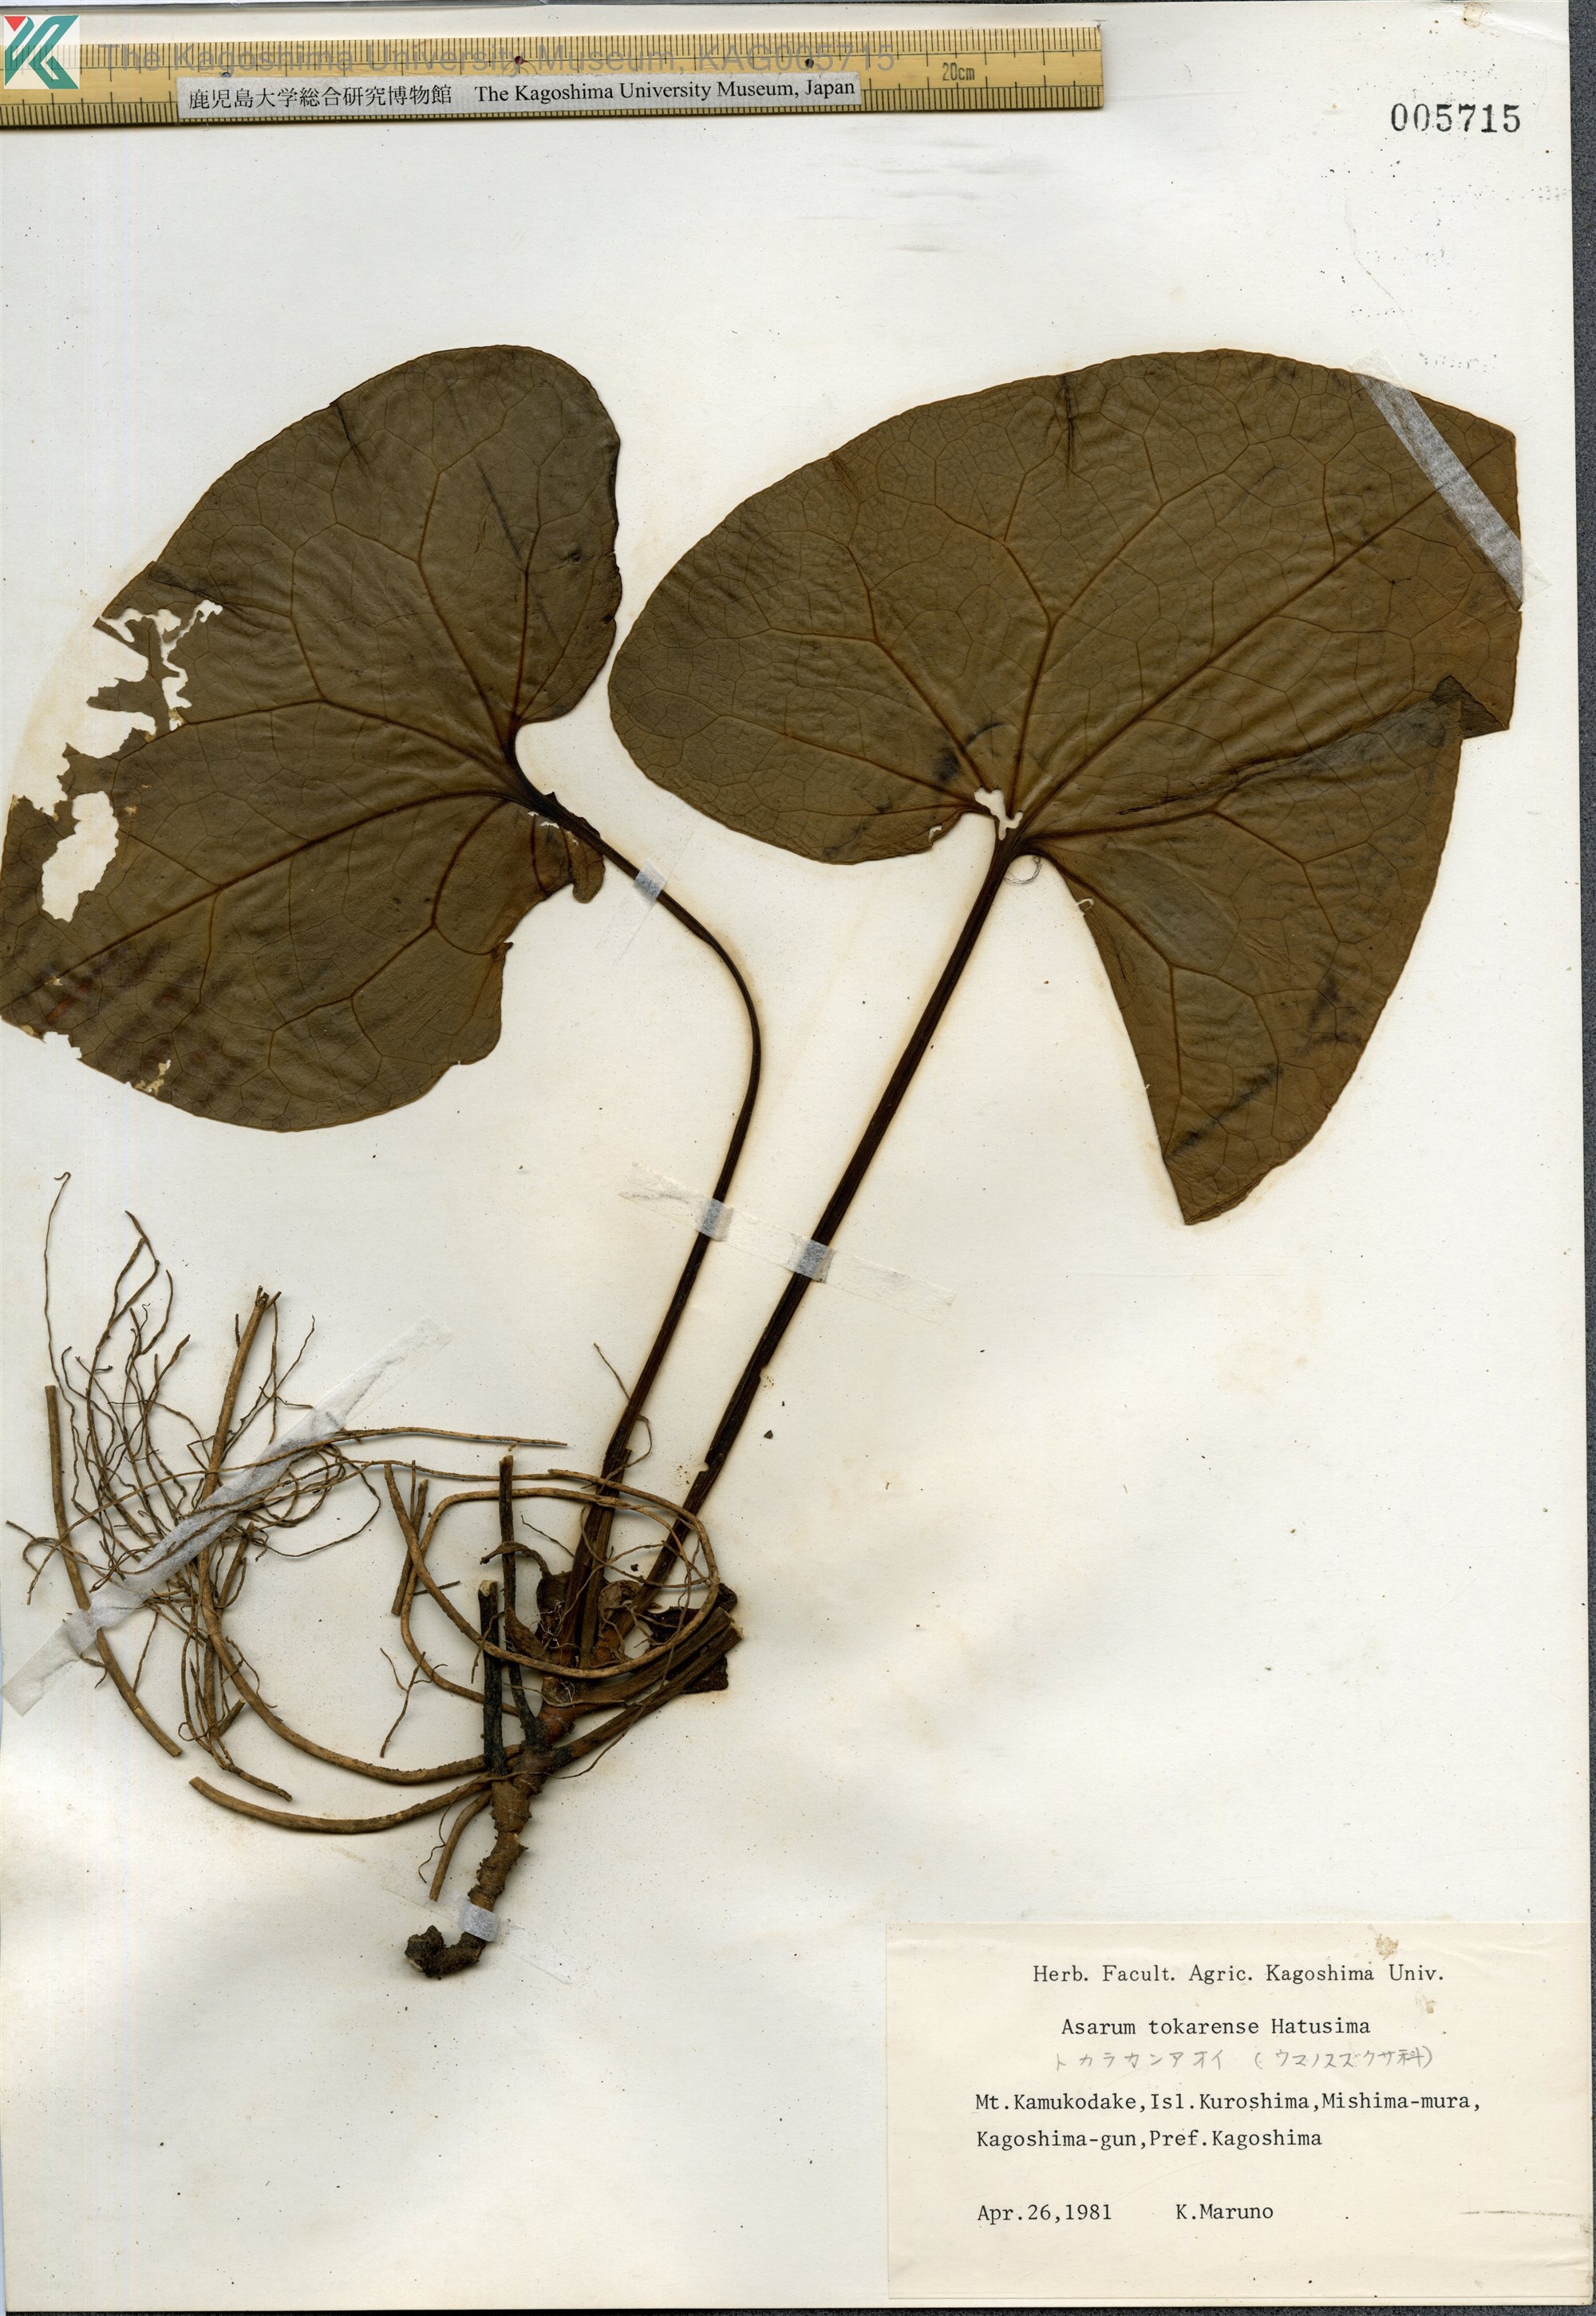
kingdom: Plantae
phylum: Tracheophyta
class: Magnoliopsida
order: Piperales
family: Aristolochiaceae
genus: Asarum
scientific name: Asarum tokarense
